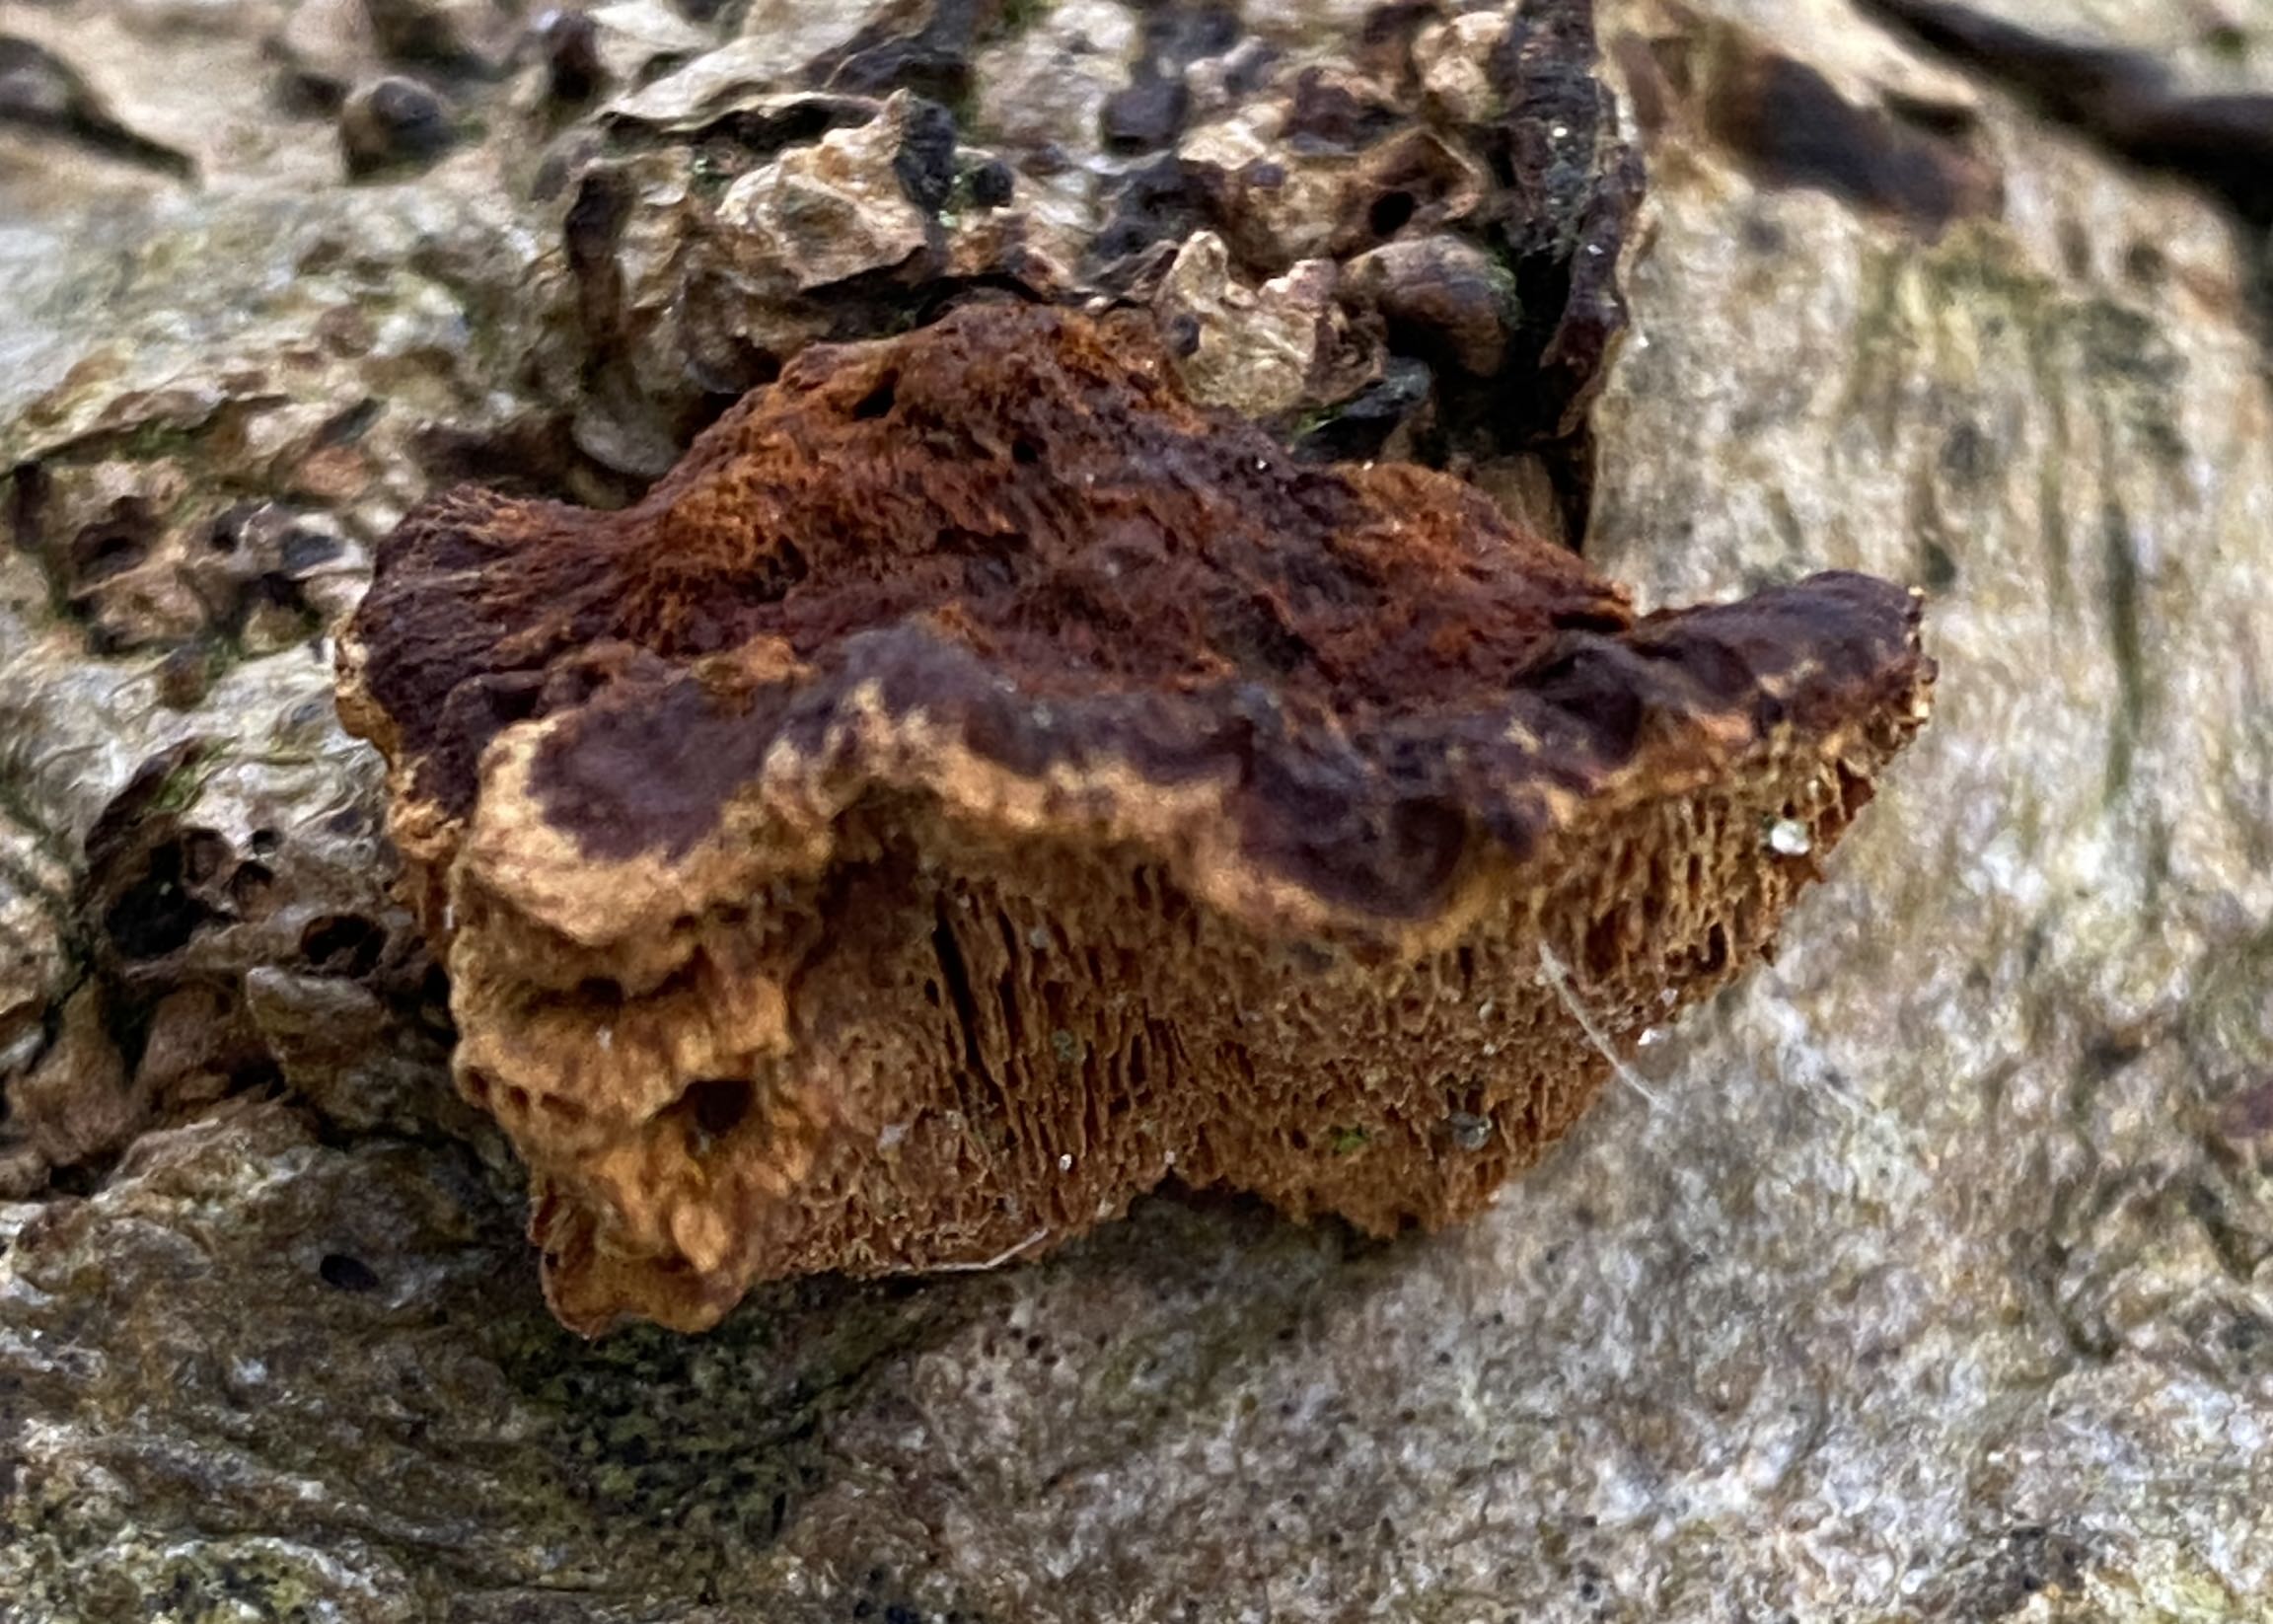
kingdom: Fungi
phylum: Basidiomycota
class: Agaricomycetes
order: Hymenochaetales
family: Hymenochaetaceae
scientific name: Hymenochaetaceae
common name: børstesvampfamilien
